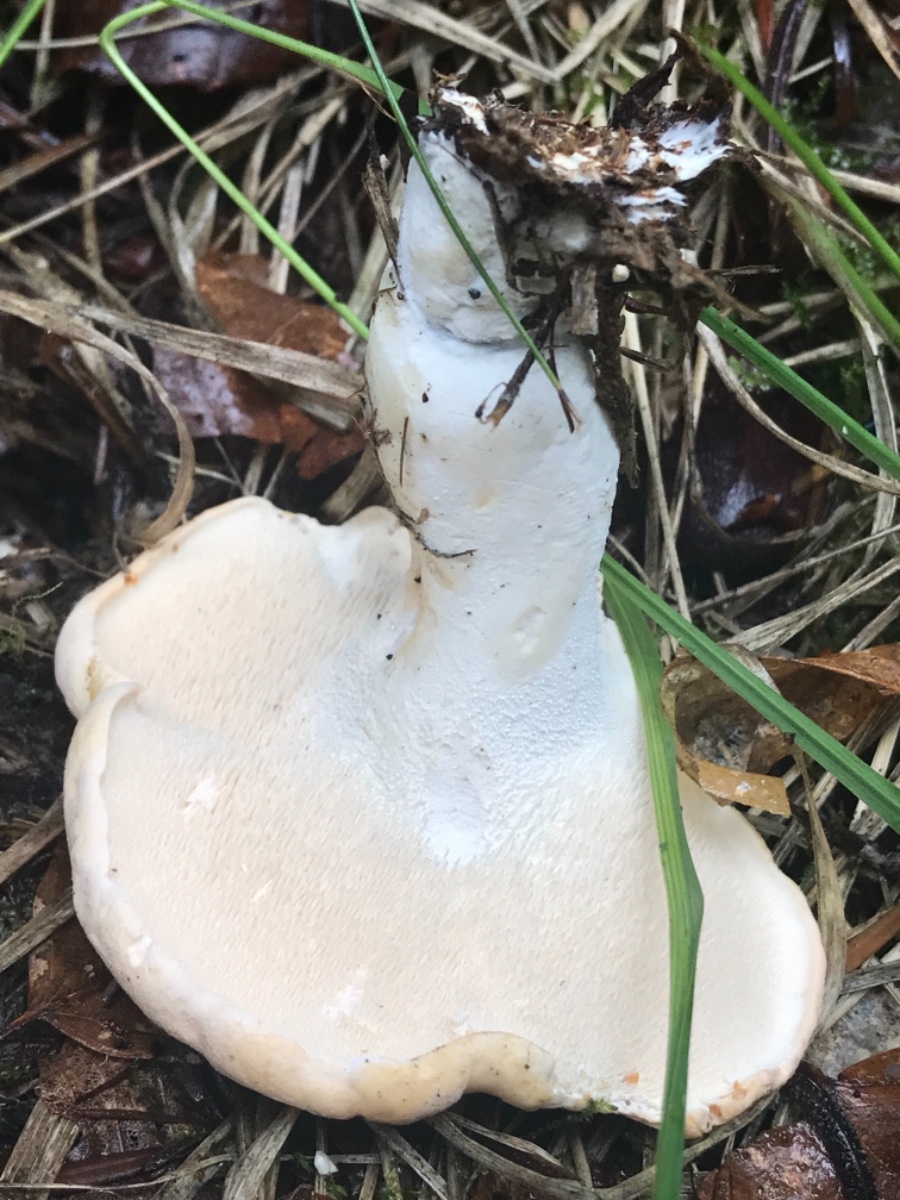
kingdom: Fungi
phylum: Basidiomycota
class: Agaricomycetes
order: Cantharellales
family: Hydnaceae
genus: Hydnum
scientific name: Hydnum repandum
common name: almindelig pigsvamp
